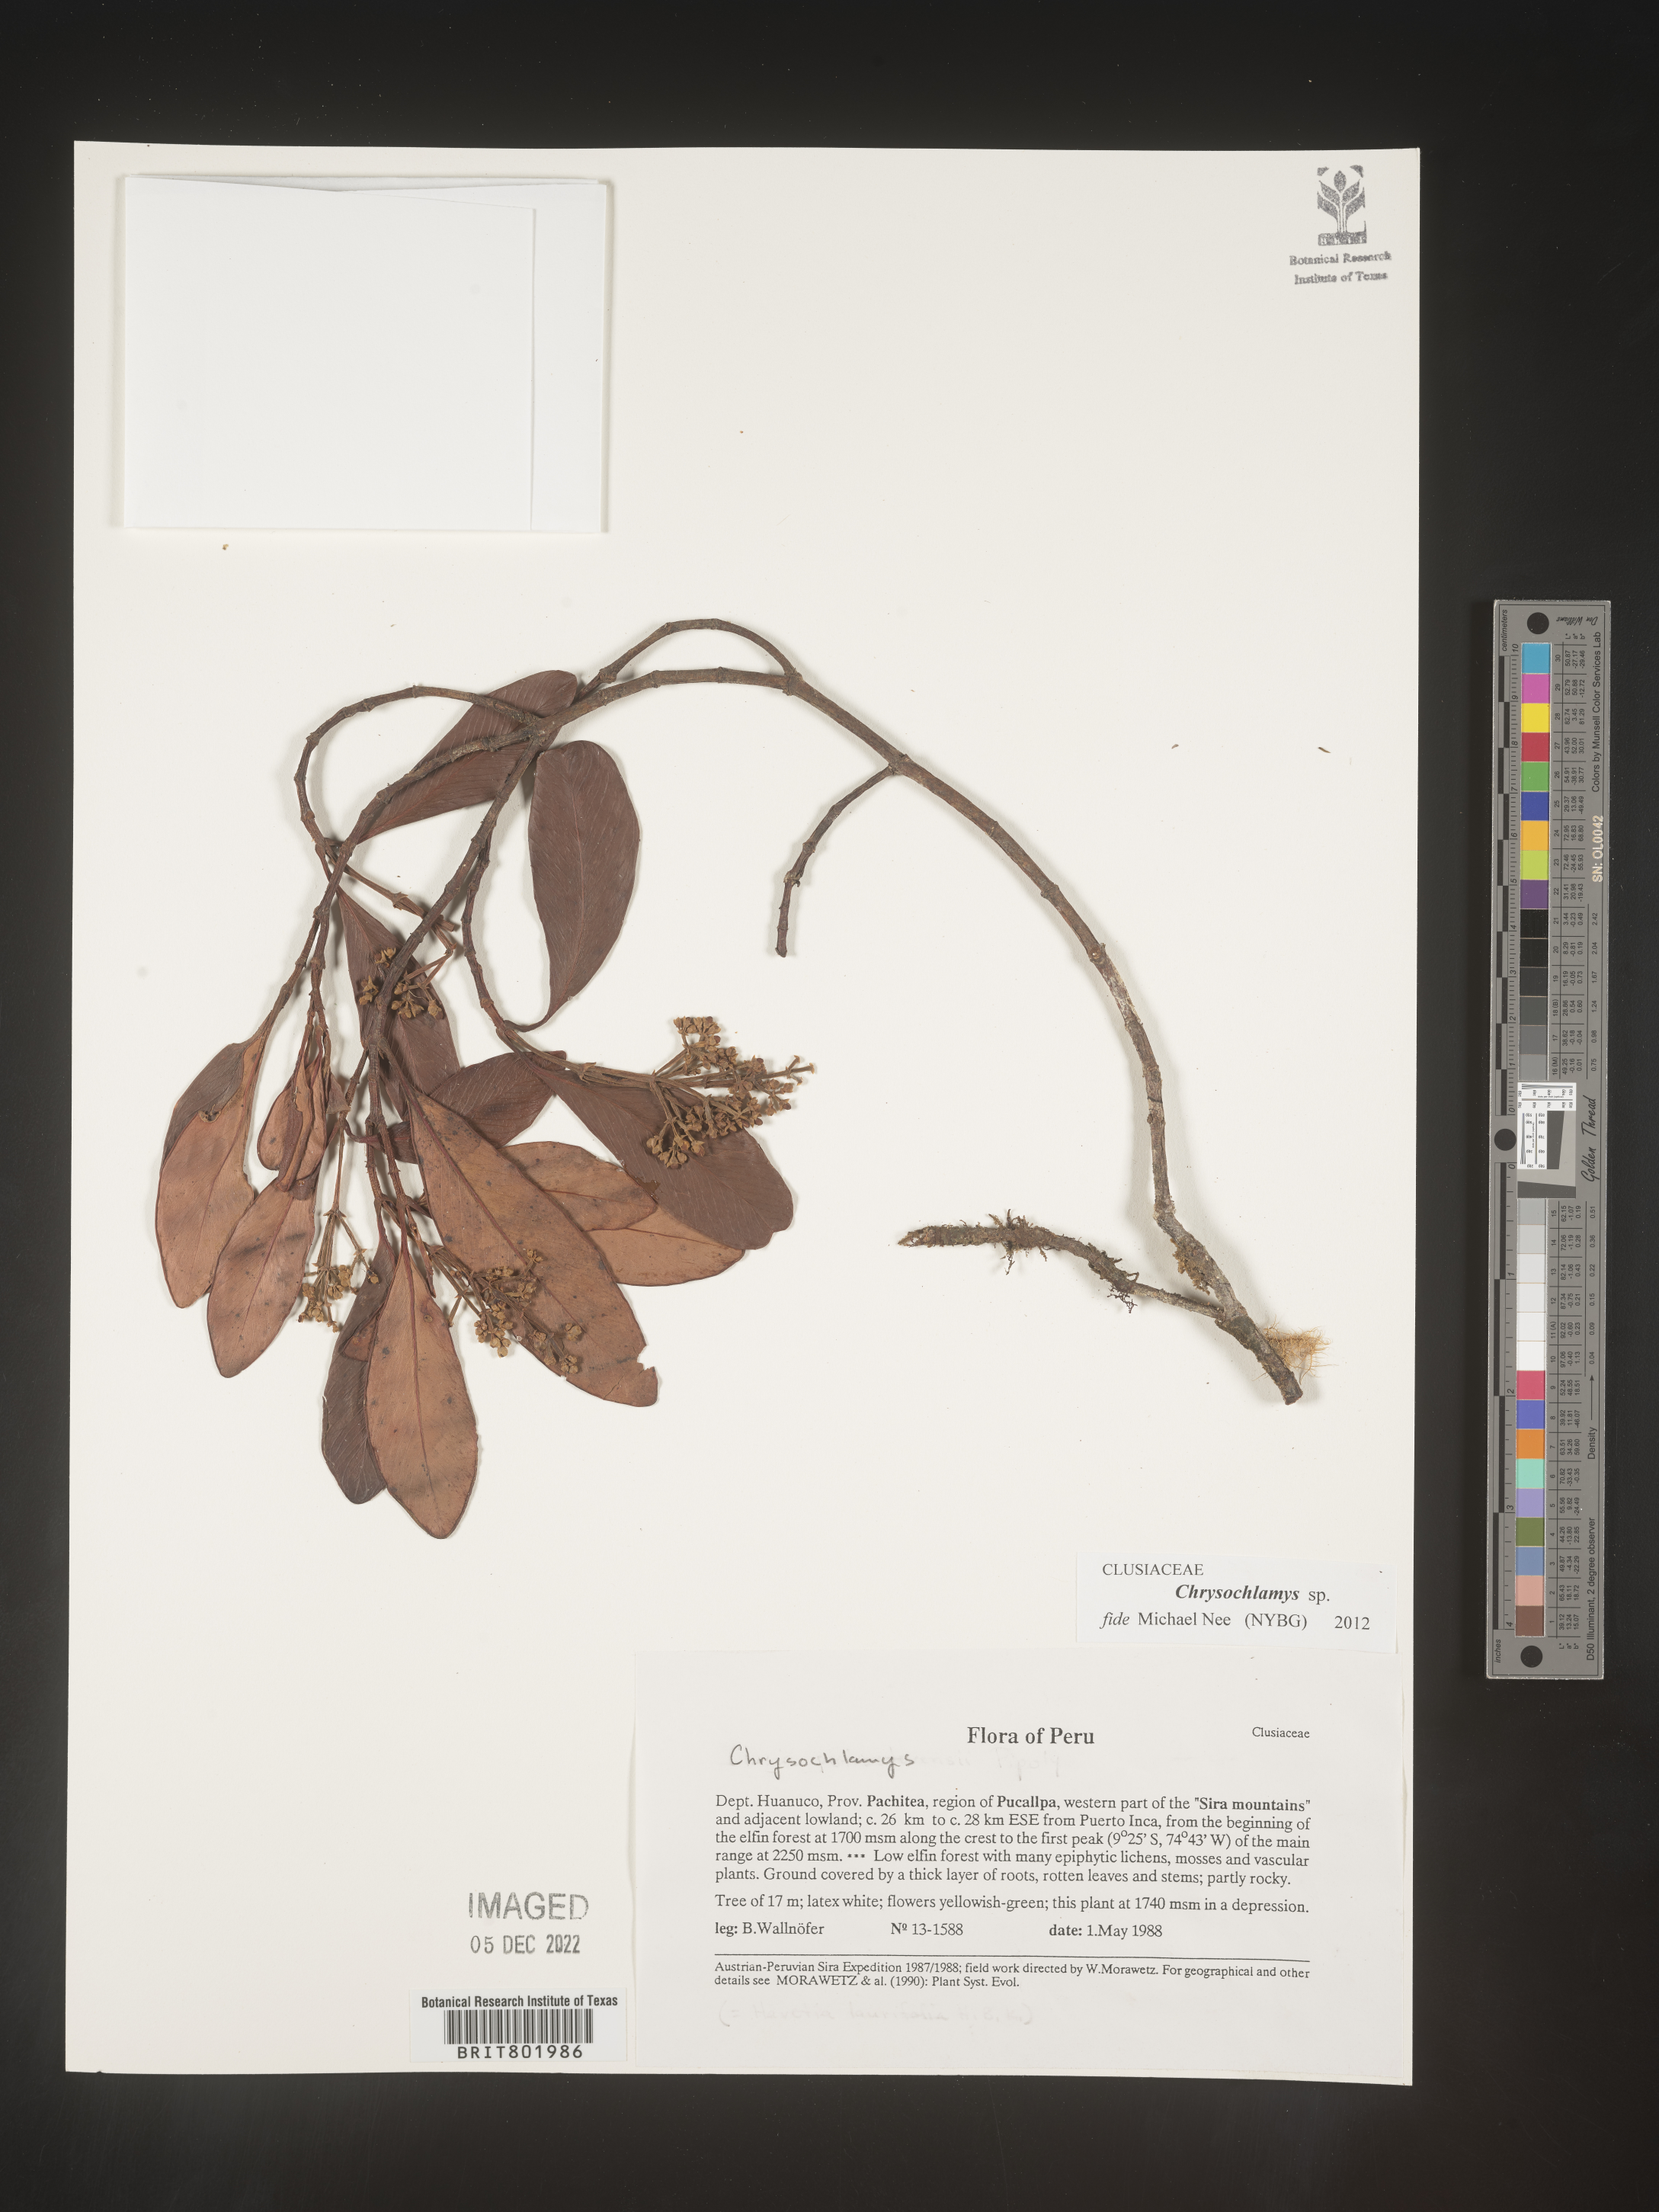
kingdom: Plantae
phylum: Tracheophyta
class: Magnoliopsida
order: Malpighiales
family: Clusiaceae
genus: Chrysochlamys
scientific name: Chrysochlamys
